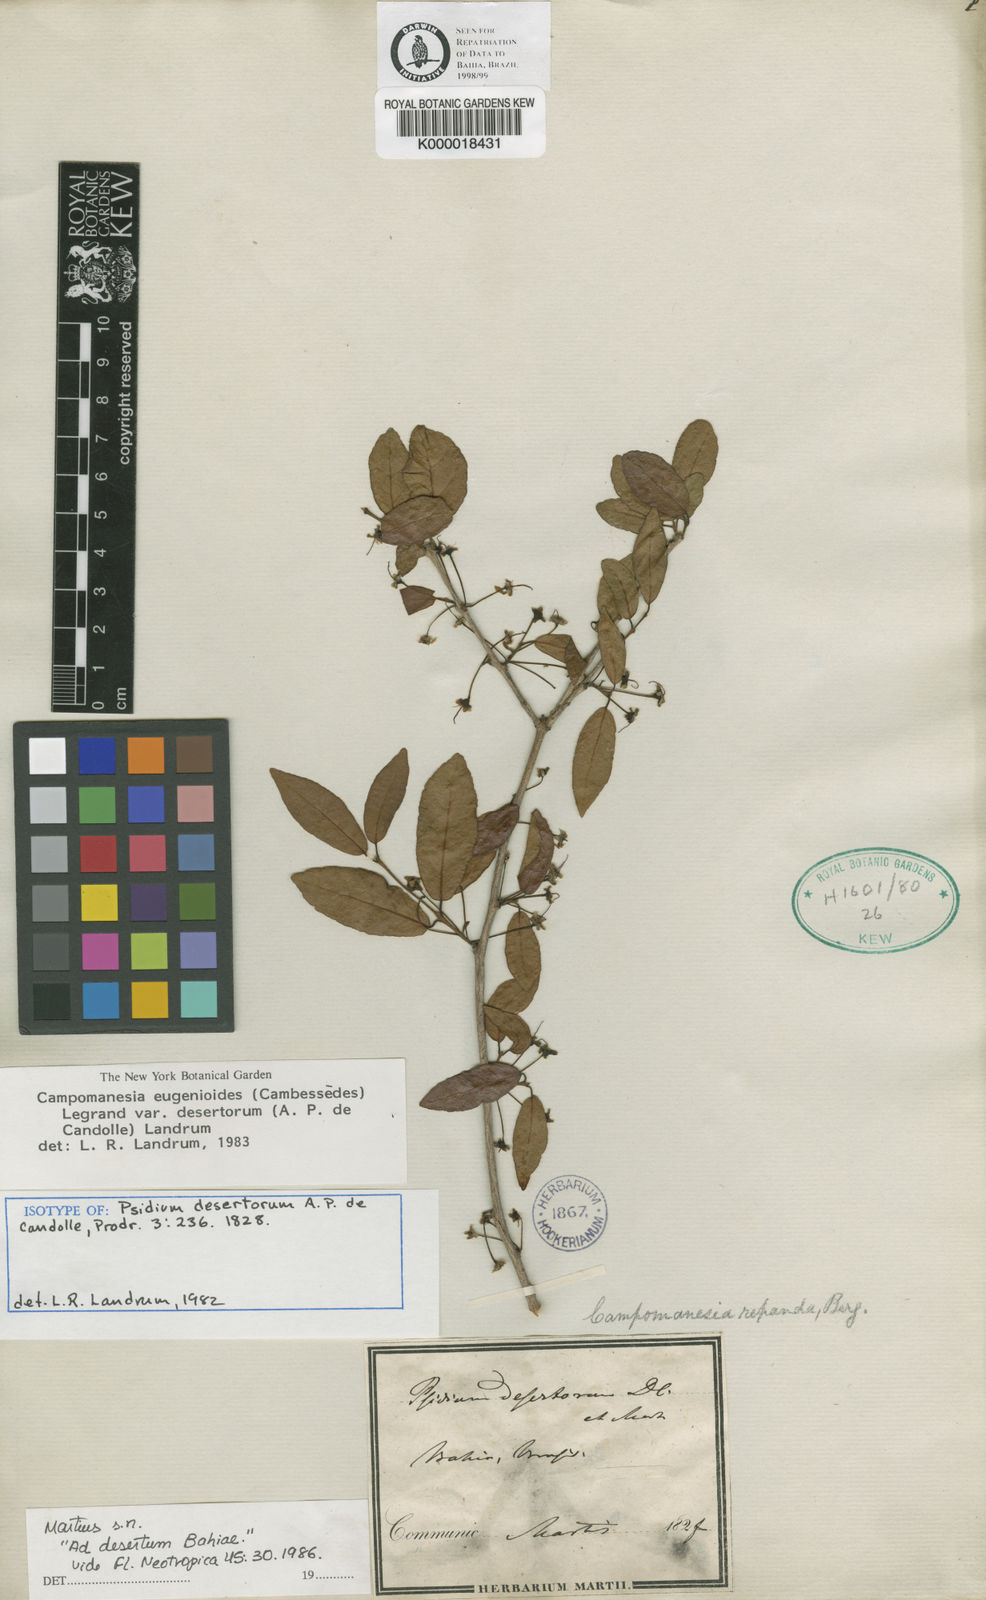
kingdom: Plantae
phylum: Tracheophyta
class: Magnoliopsida
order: Myrtales
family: Myrtaceae
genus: Campomanesia
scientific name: Campomanesia eugenioides
